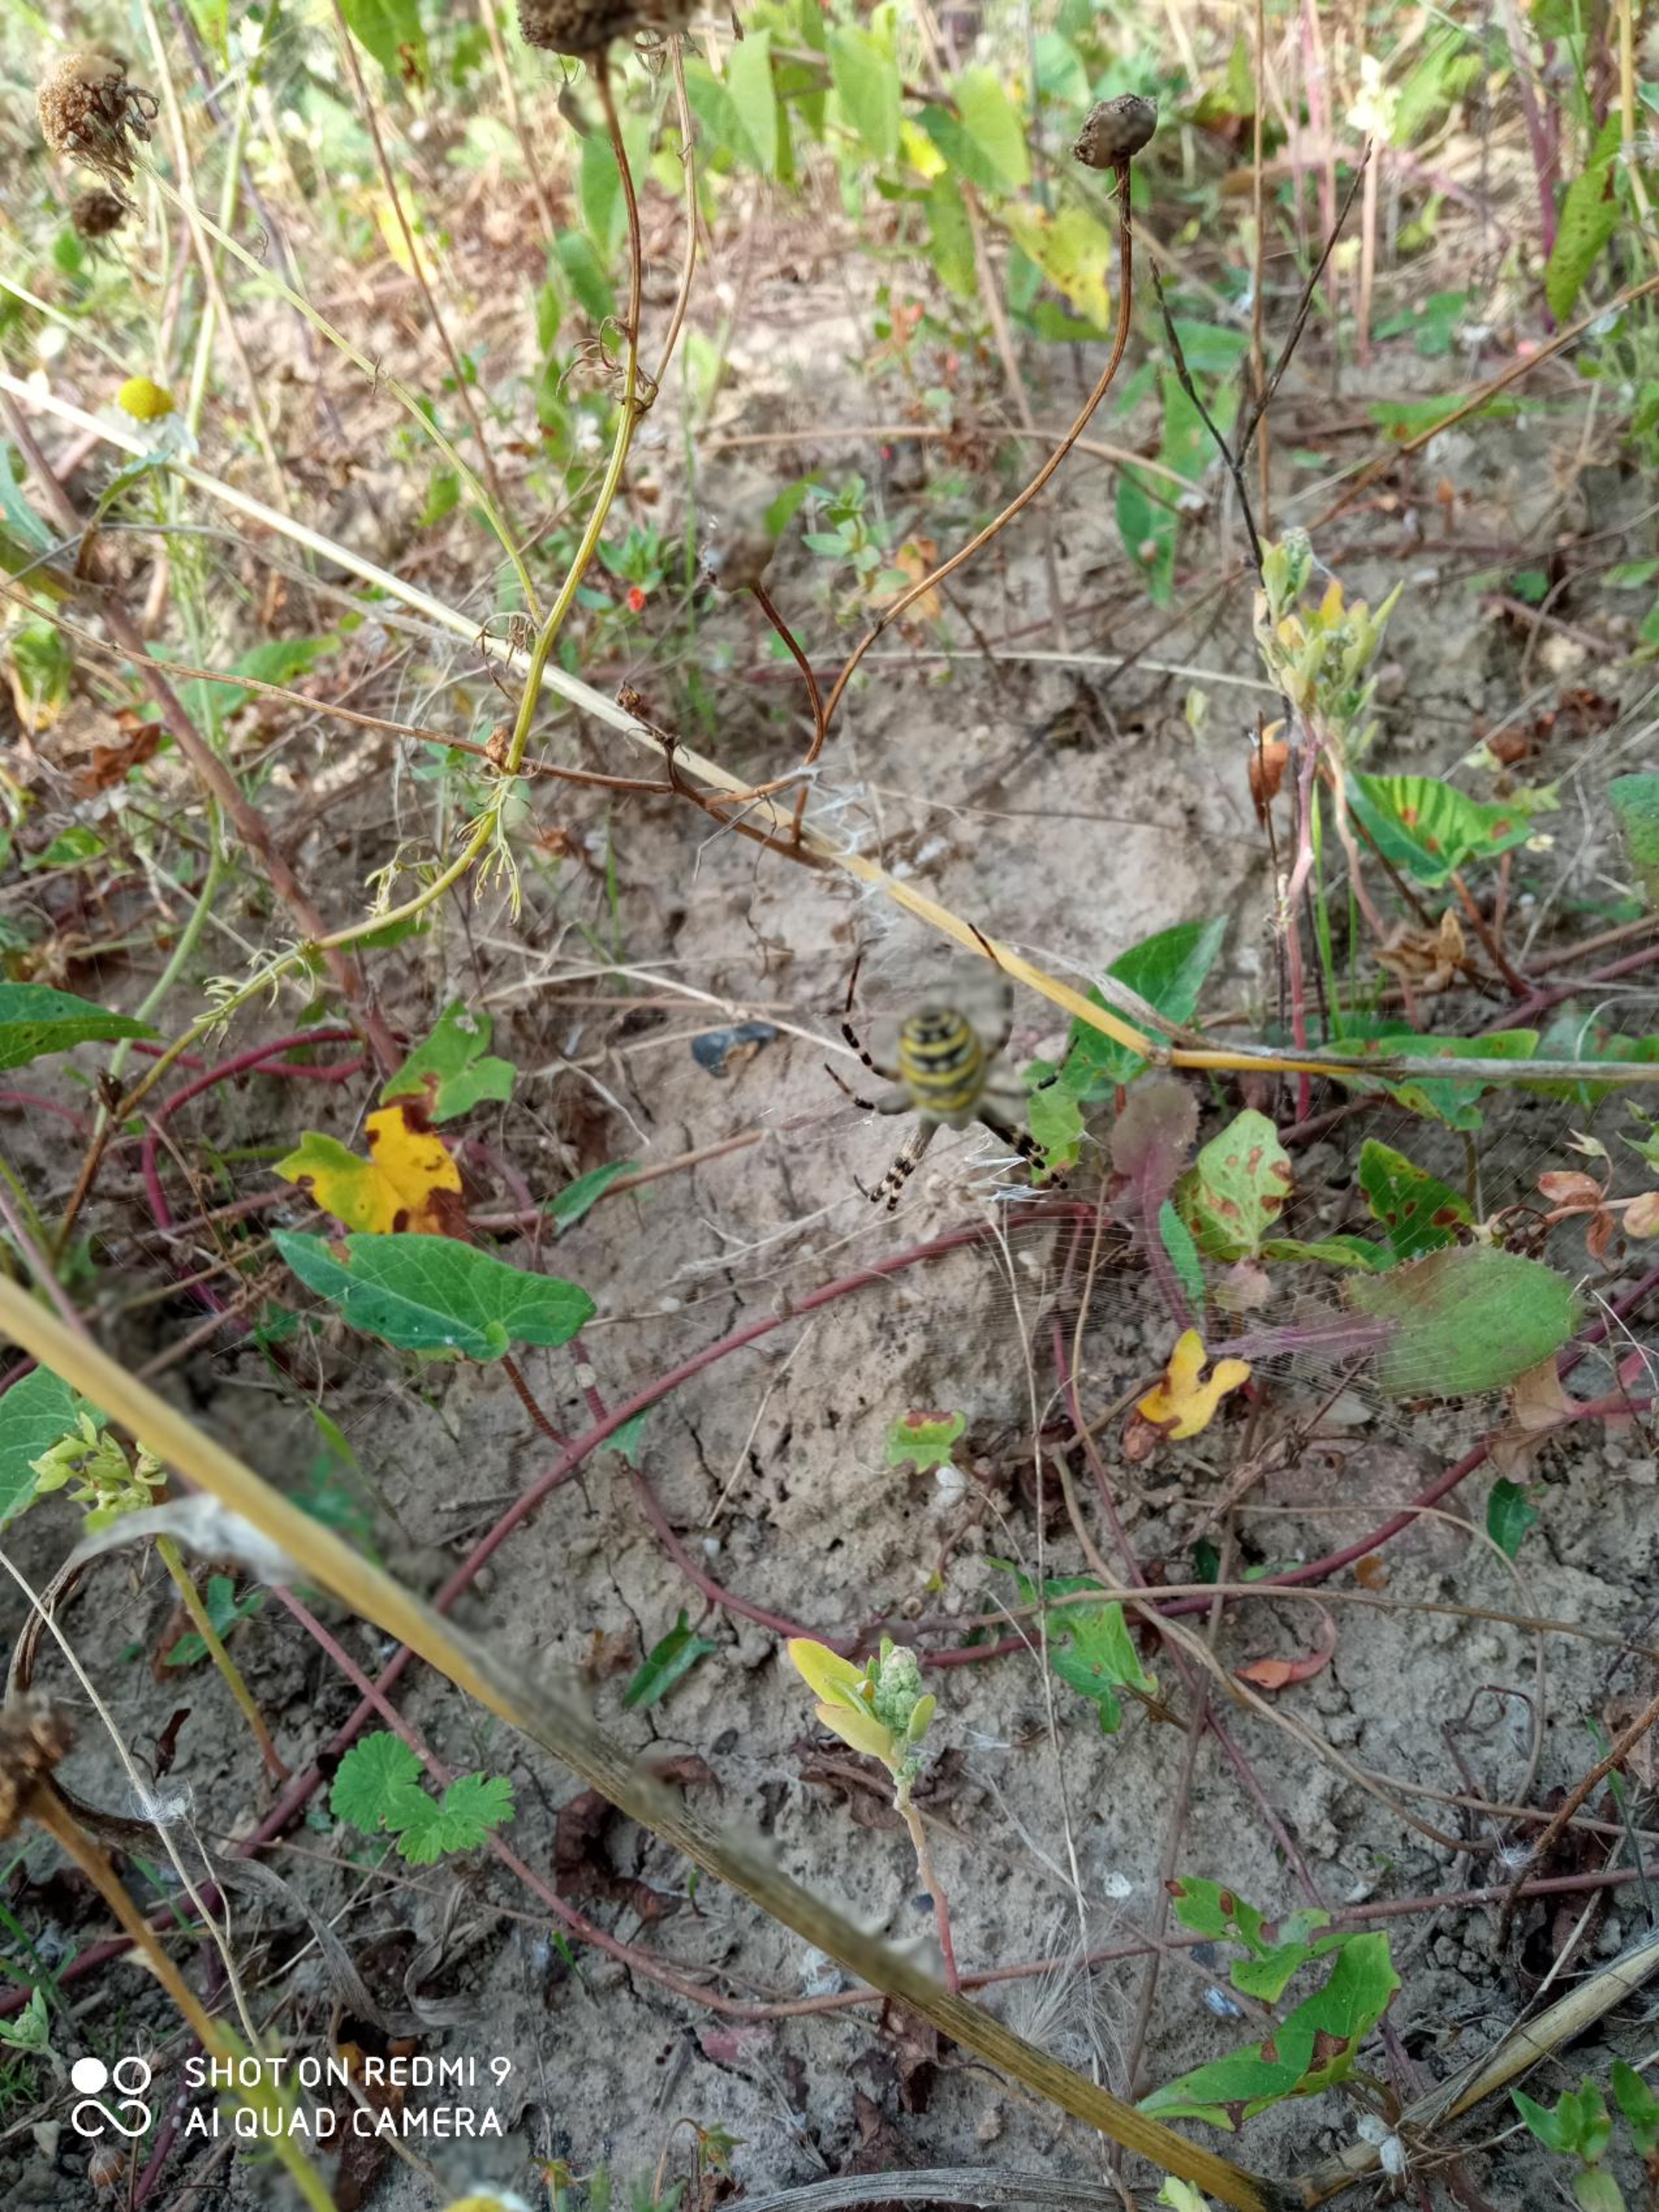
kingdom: Animalia
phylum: Arthropoda
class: Arachnida
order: Araneae
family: Araneidae
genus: Argiope
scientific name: Argiope bruennichi
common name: Hvepseedderkop
